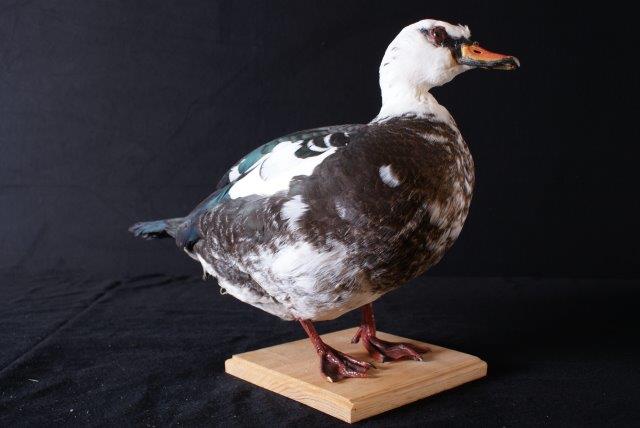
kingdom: Animalia
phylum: Chordata
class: Aves
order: Anseriformes
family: Anatidae
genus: Cairina
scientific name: Cairina moschata
